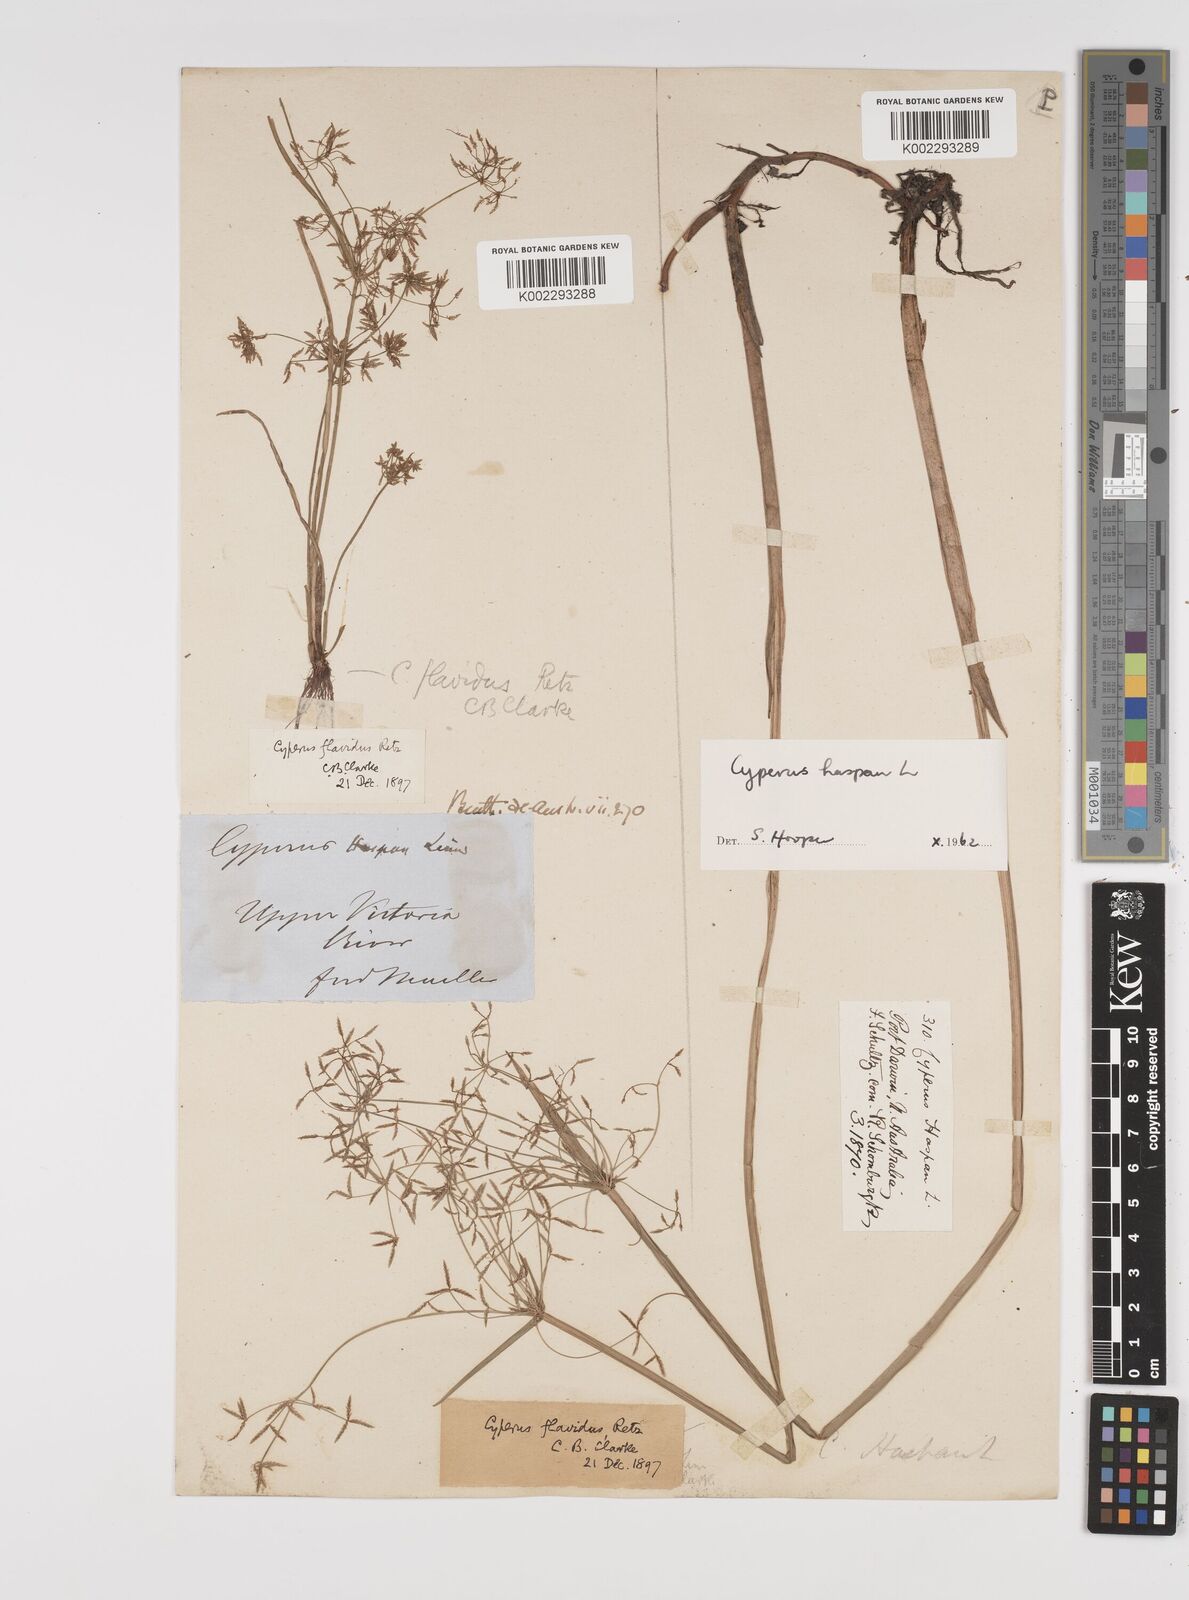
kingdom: Plantae
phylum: Tracheophyta
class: Liliopsida
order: Poales
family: Cyperaceae
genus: Cyperus
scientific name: Cyperus tenuispica
